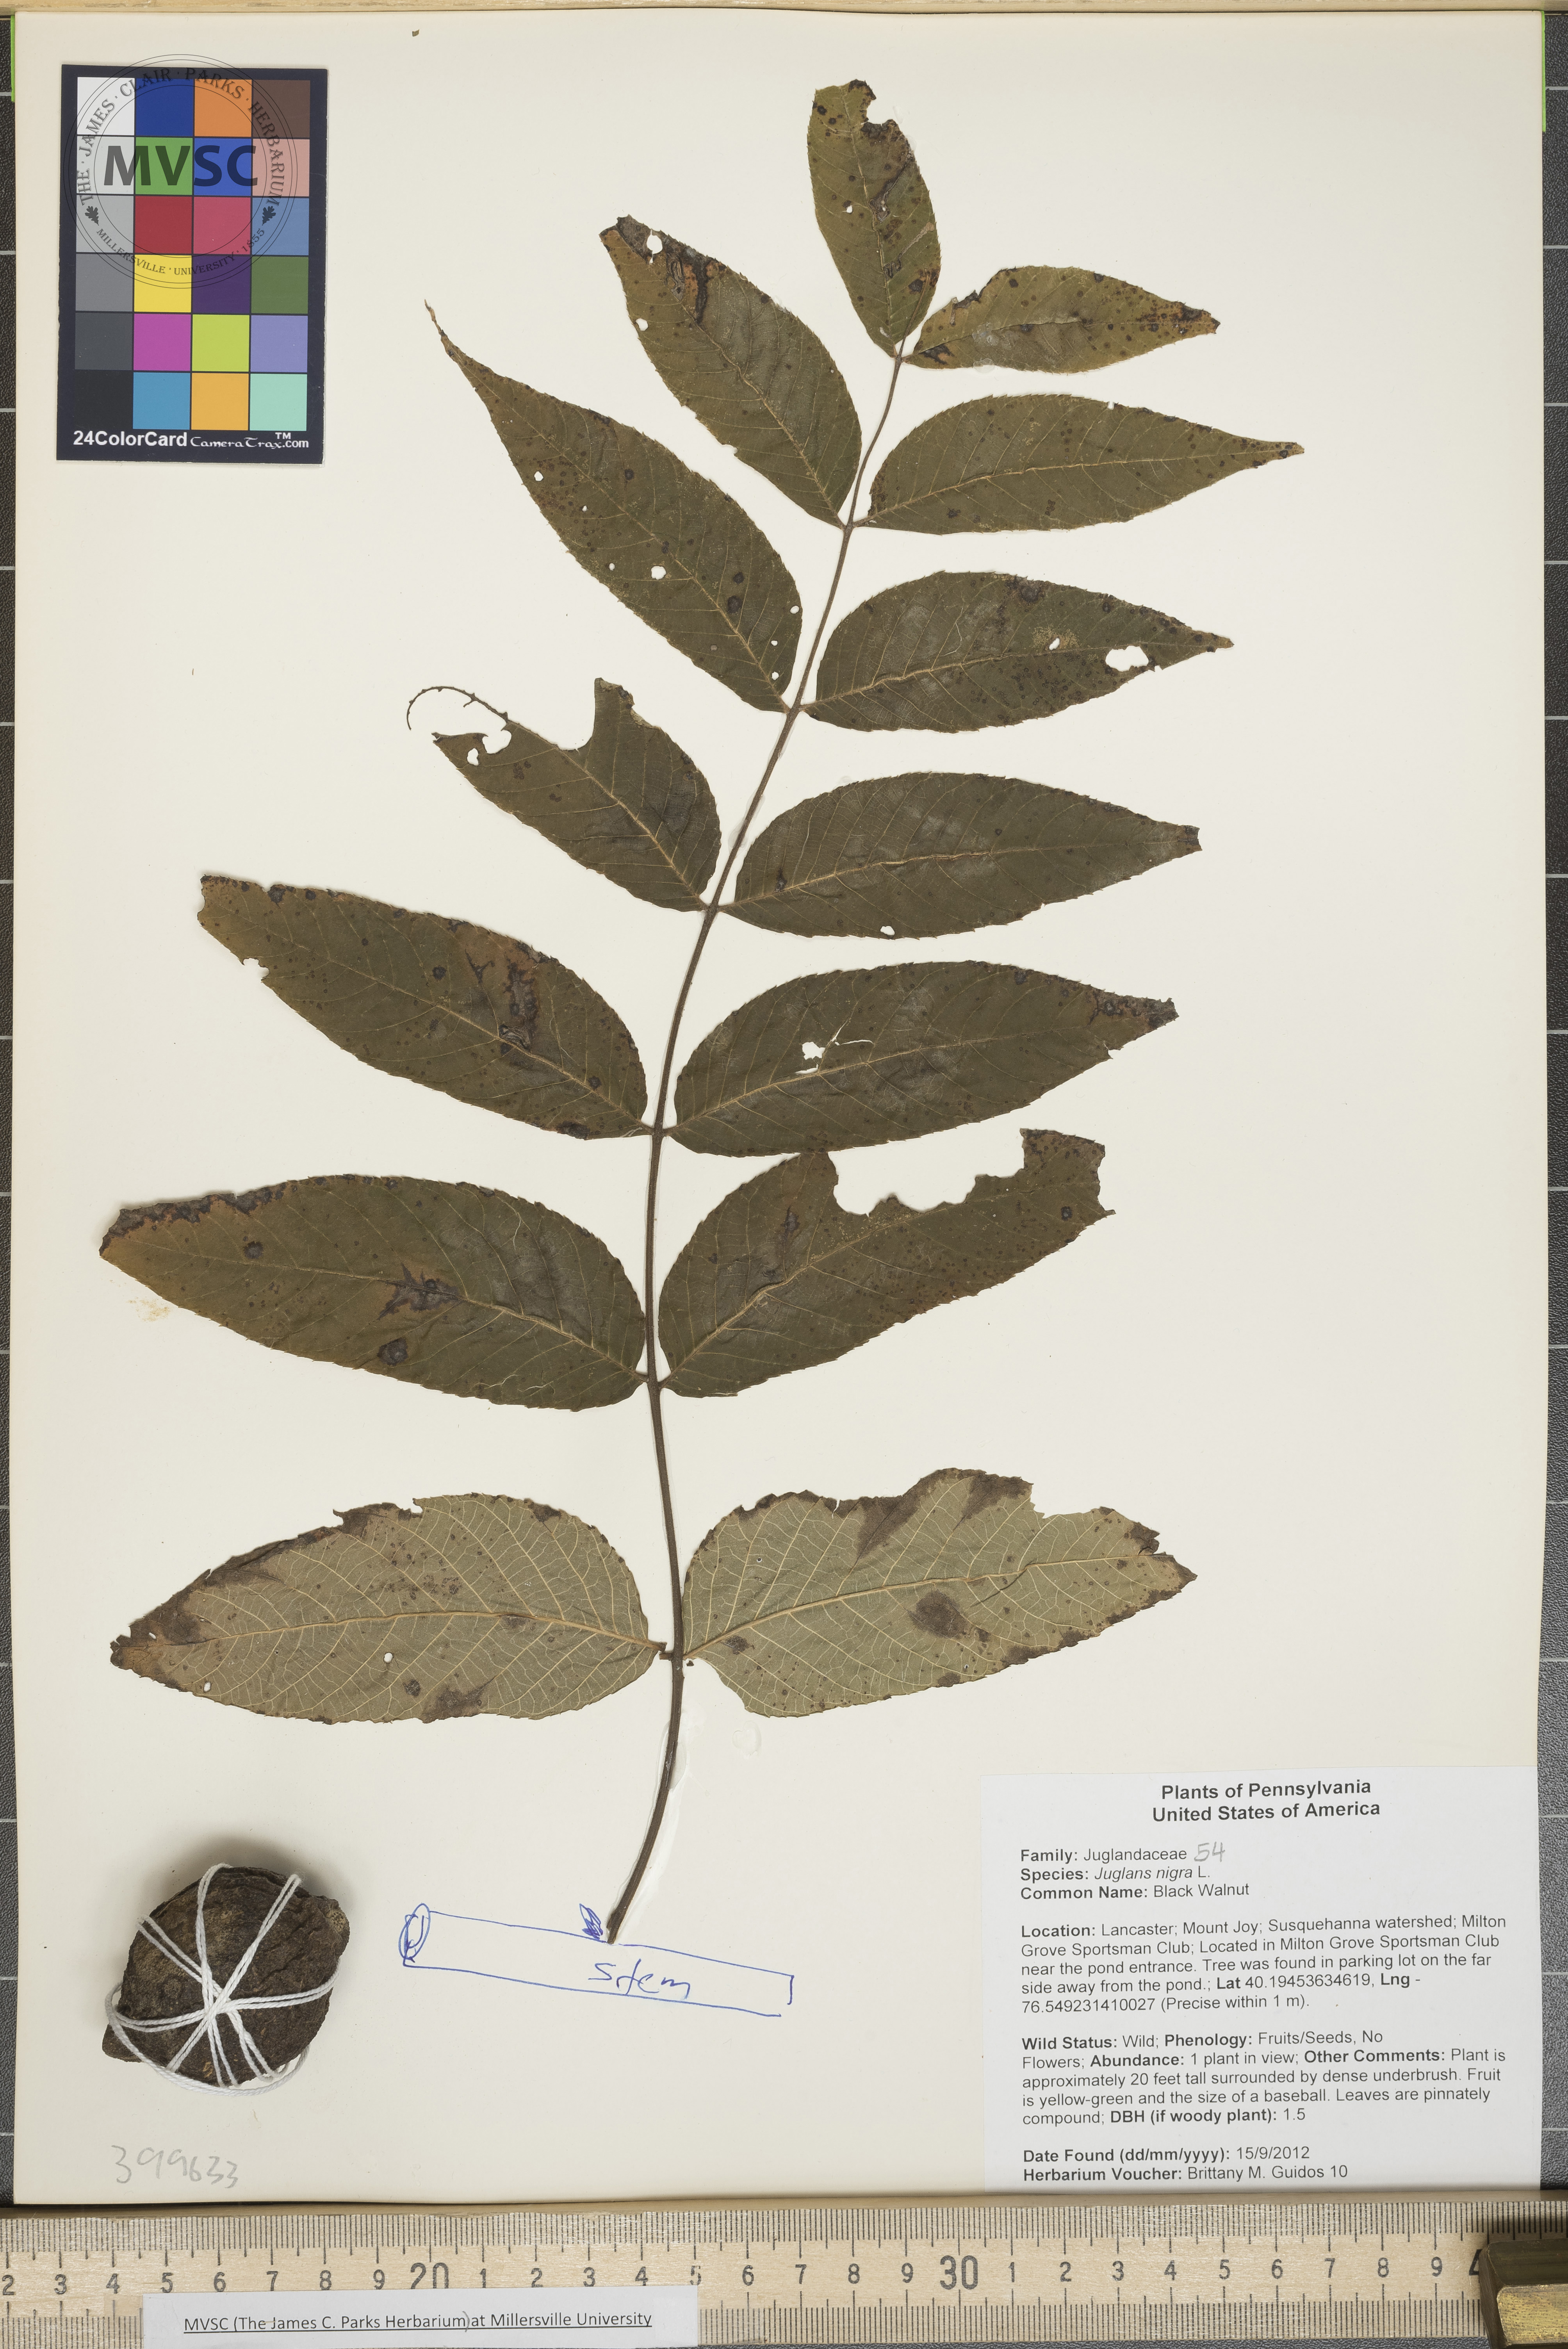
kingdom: Plantae
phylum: Tracheophyta
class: Magnoliopsida
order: Fagales
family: Juglandaceae
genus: Juglans
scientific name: Juglans nigra
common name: Black Walnut
